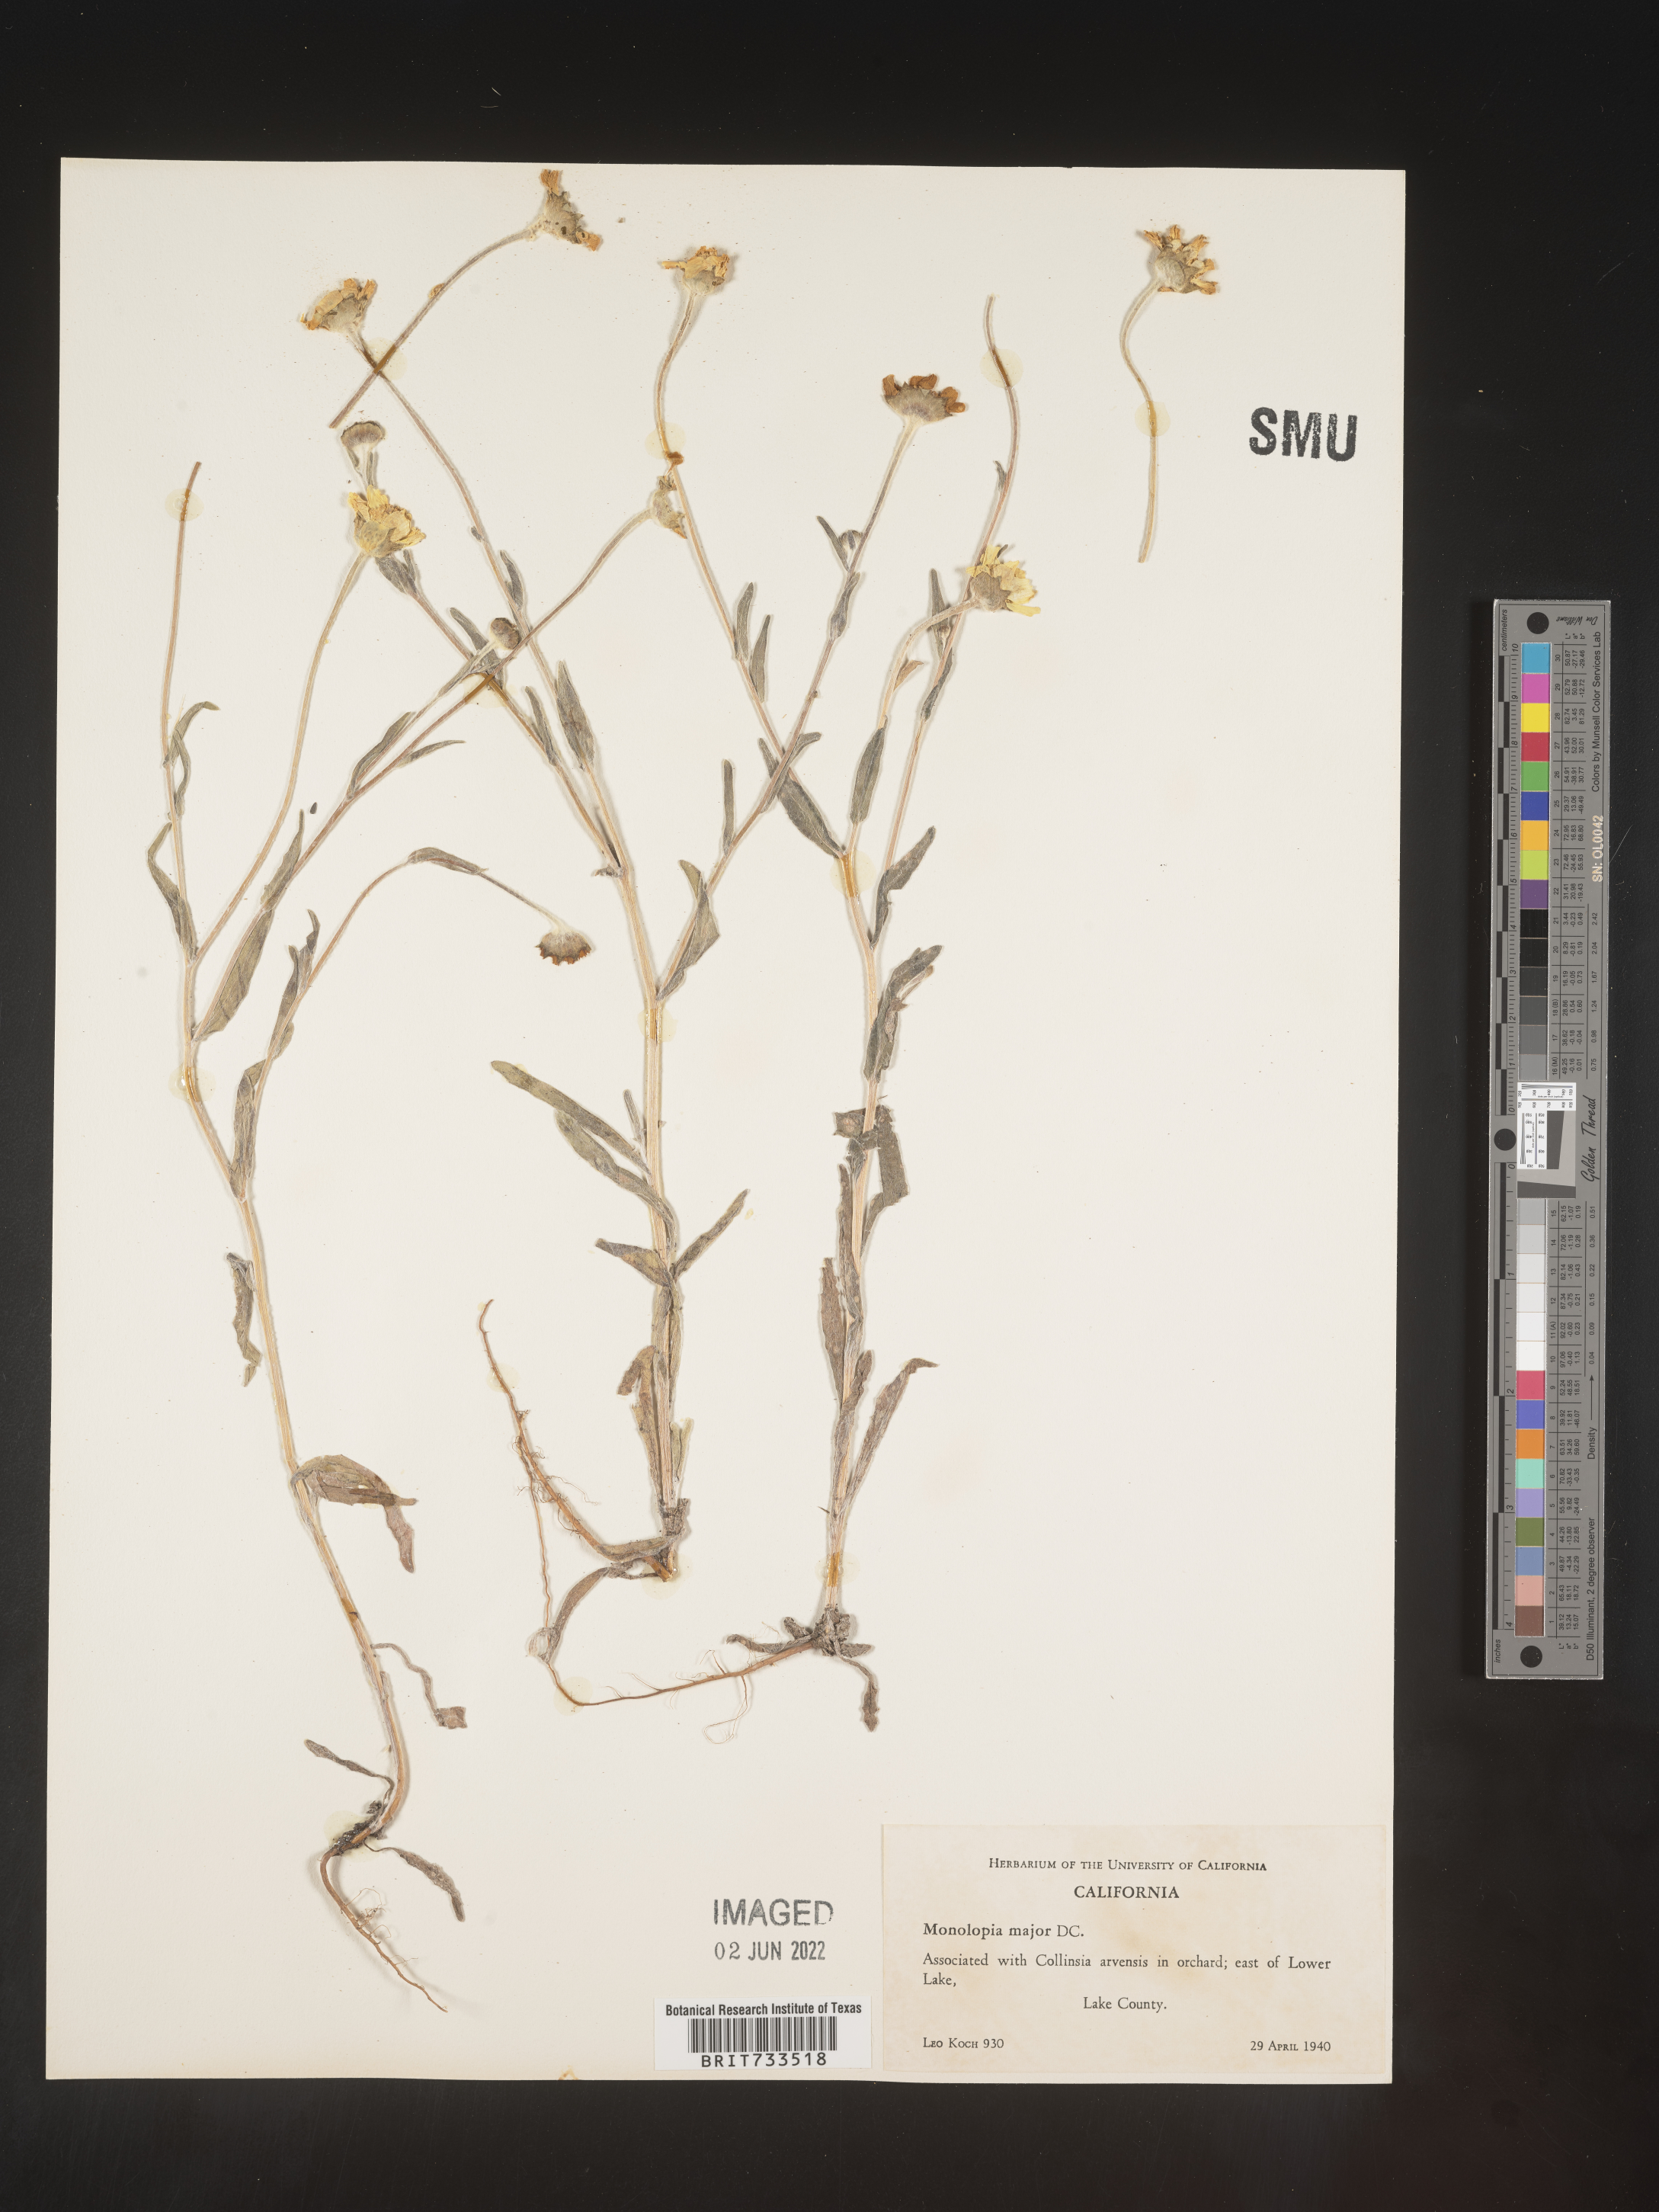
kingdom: Plantae
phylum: Tracheophyta
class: Magnoliopsida
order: Asterales
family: Asteraceae
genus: Monolopia
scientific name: Monolopia major
